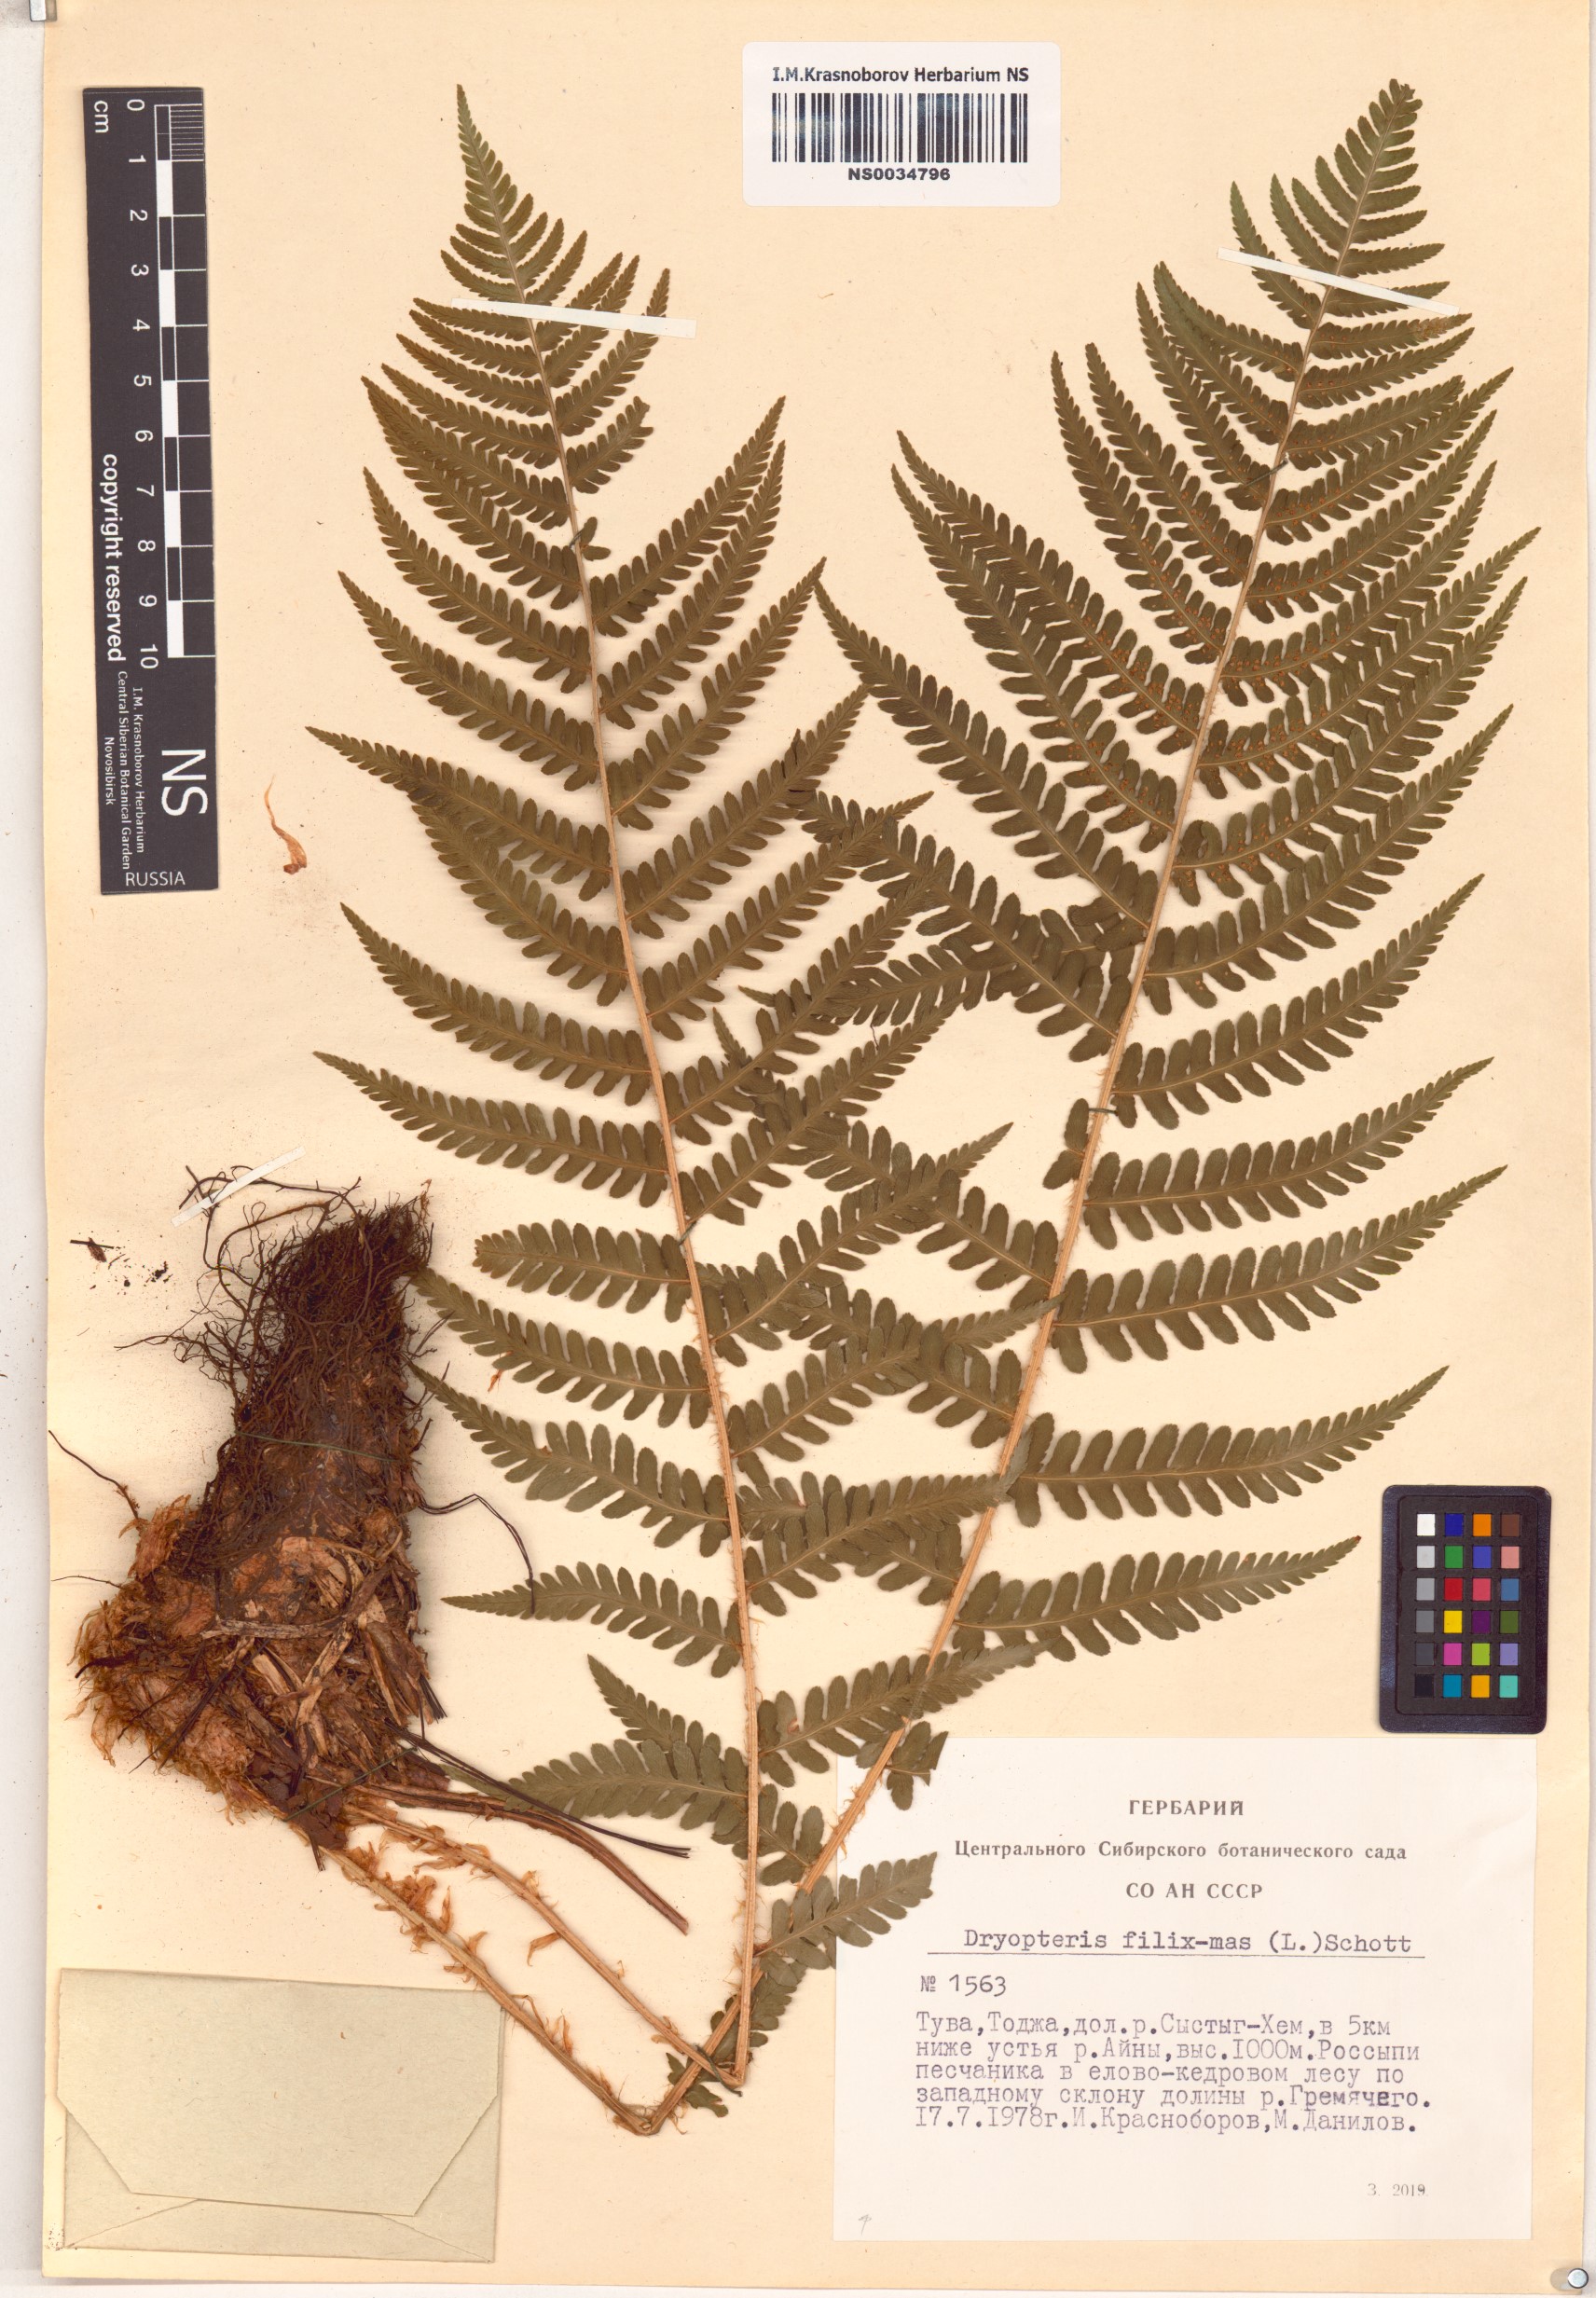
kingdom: Plantae
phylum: Tracheophyta
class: Polypodiopsida
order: Polypodiales
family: Dryopteridaceae
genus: Dryopteris
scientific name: Dryopteris filix-mas
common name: Male fern
